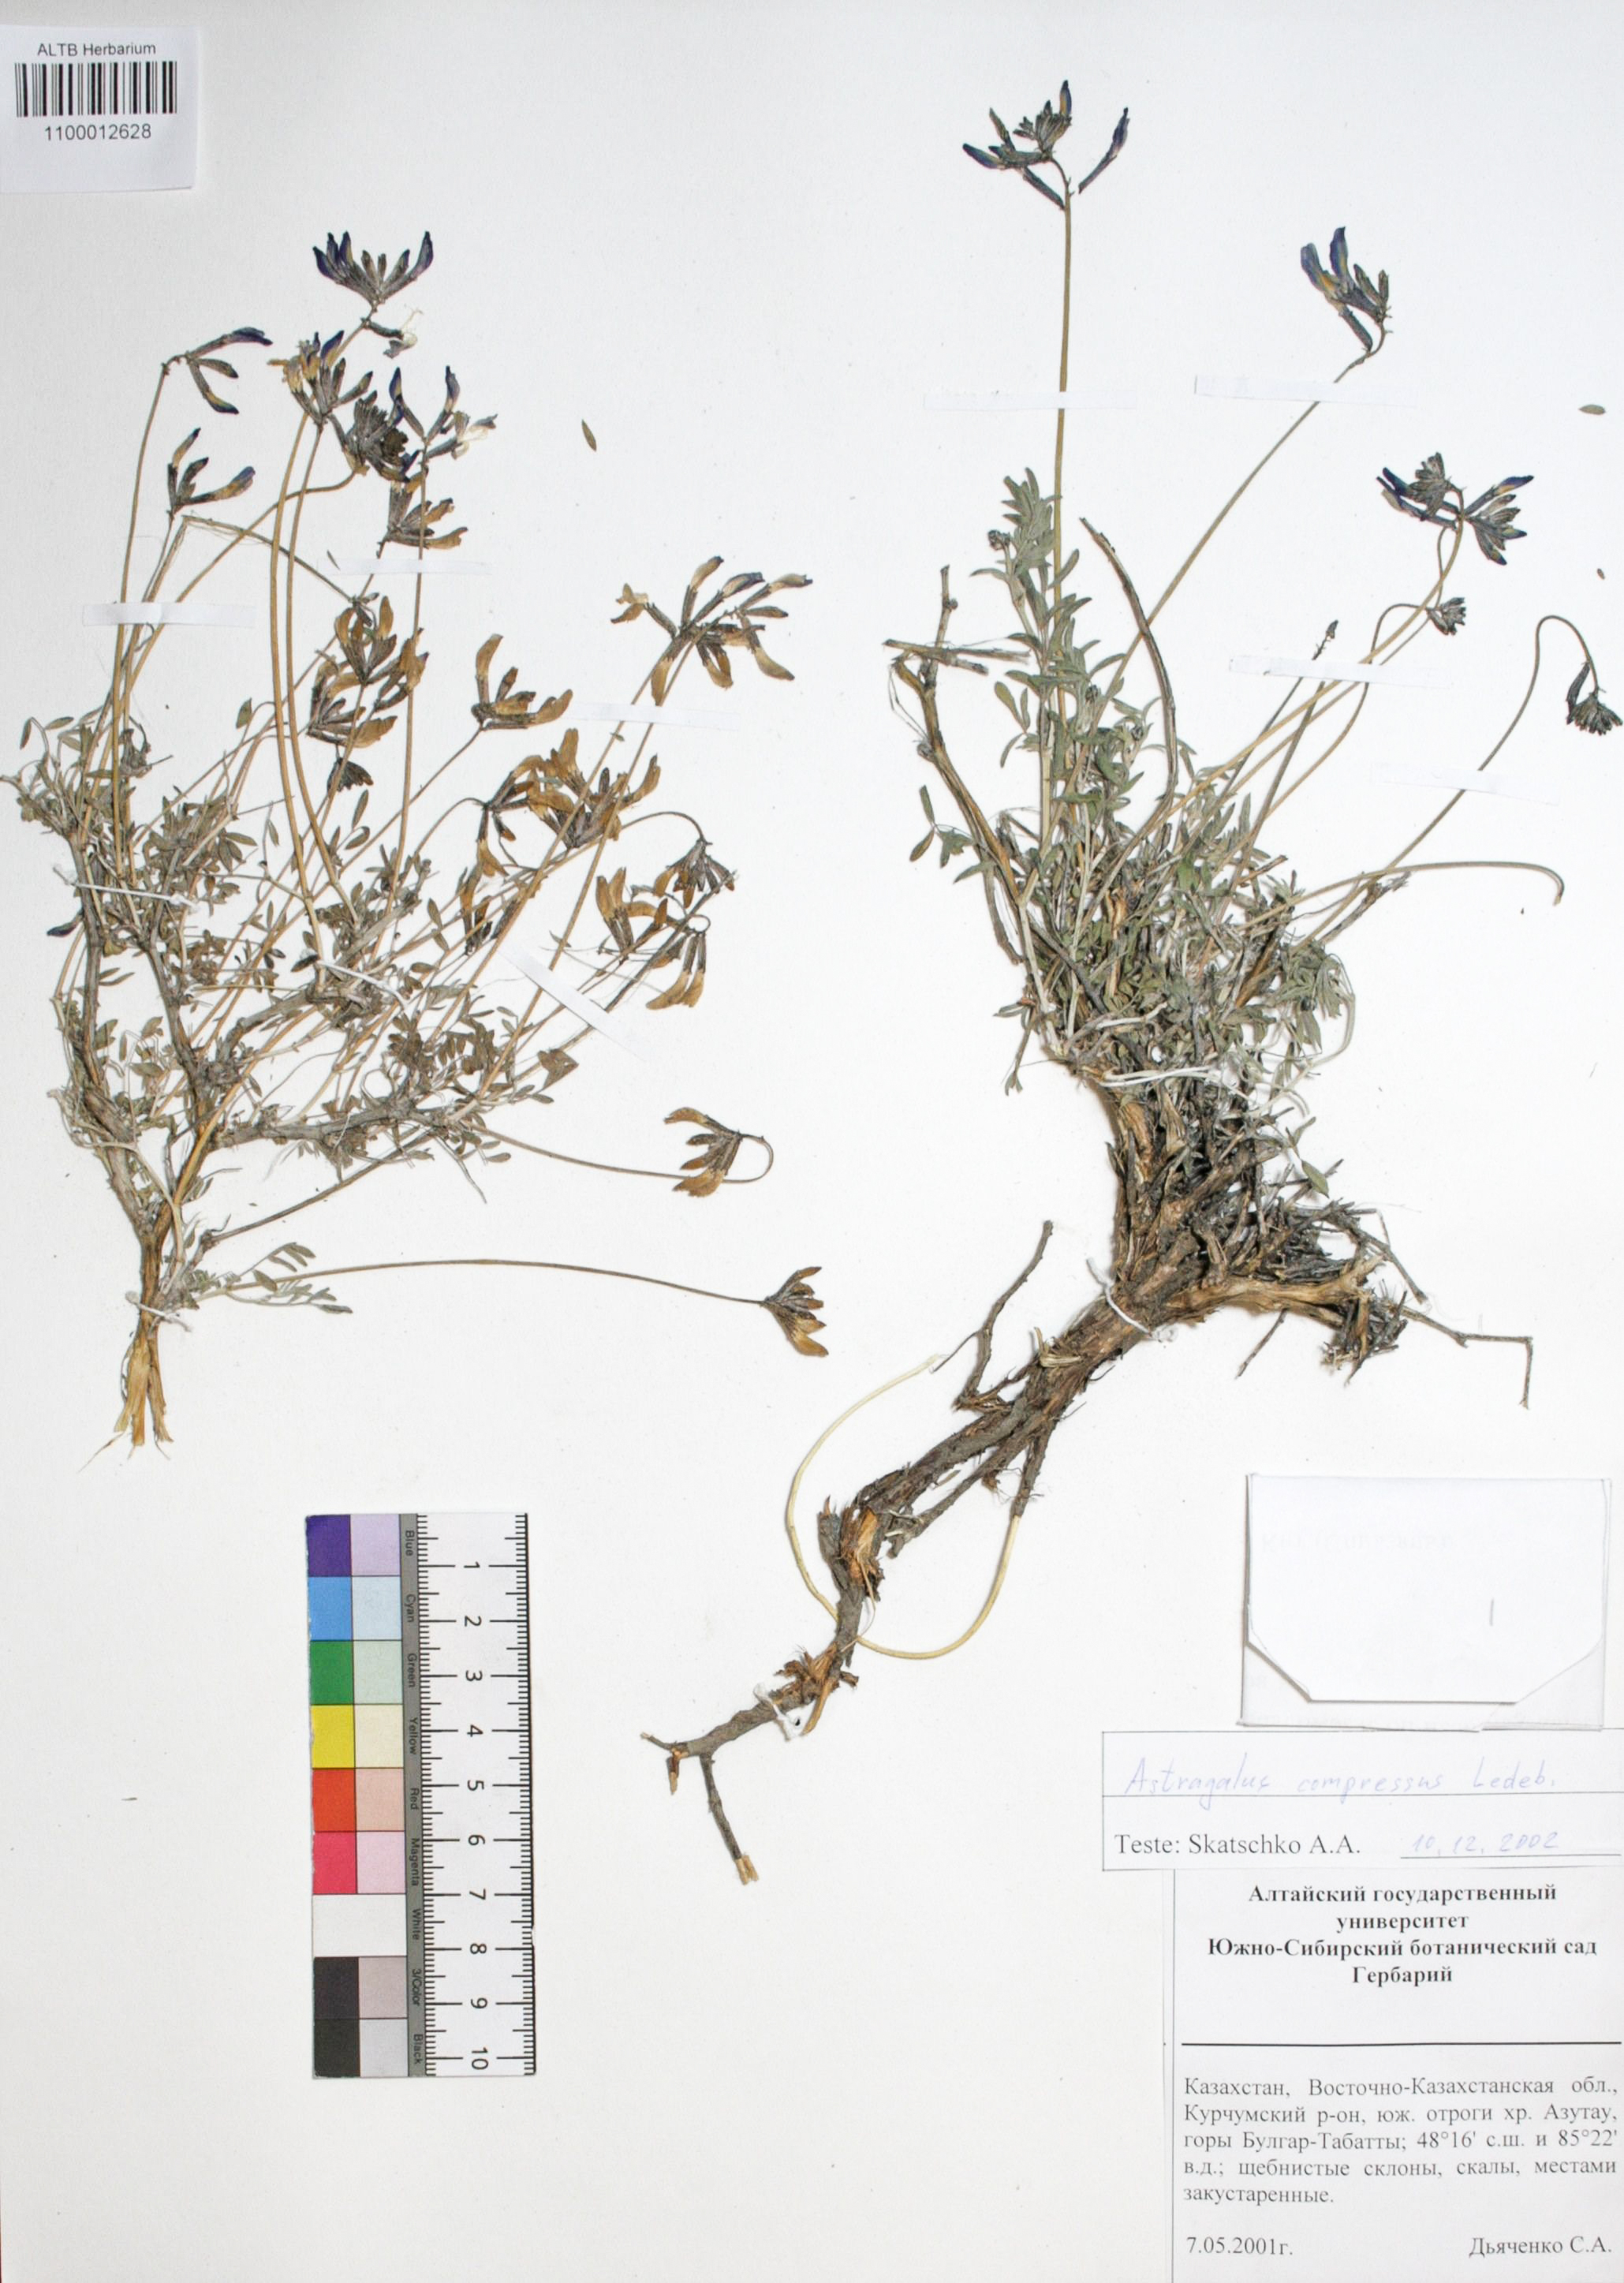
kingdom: Plantae
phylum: Tracheophyta
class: Magnoliopsida
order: Fabales
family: Fabaceae
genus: Astragalus
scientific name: Astragalus compressus
